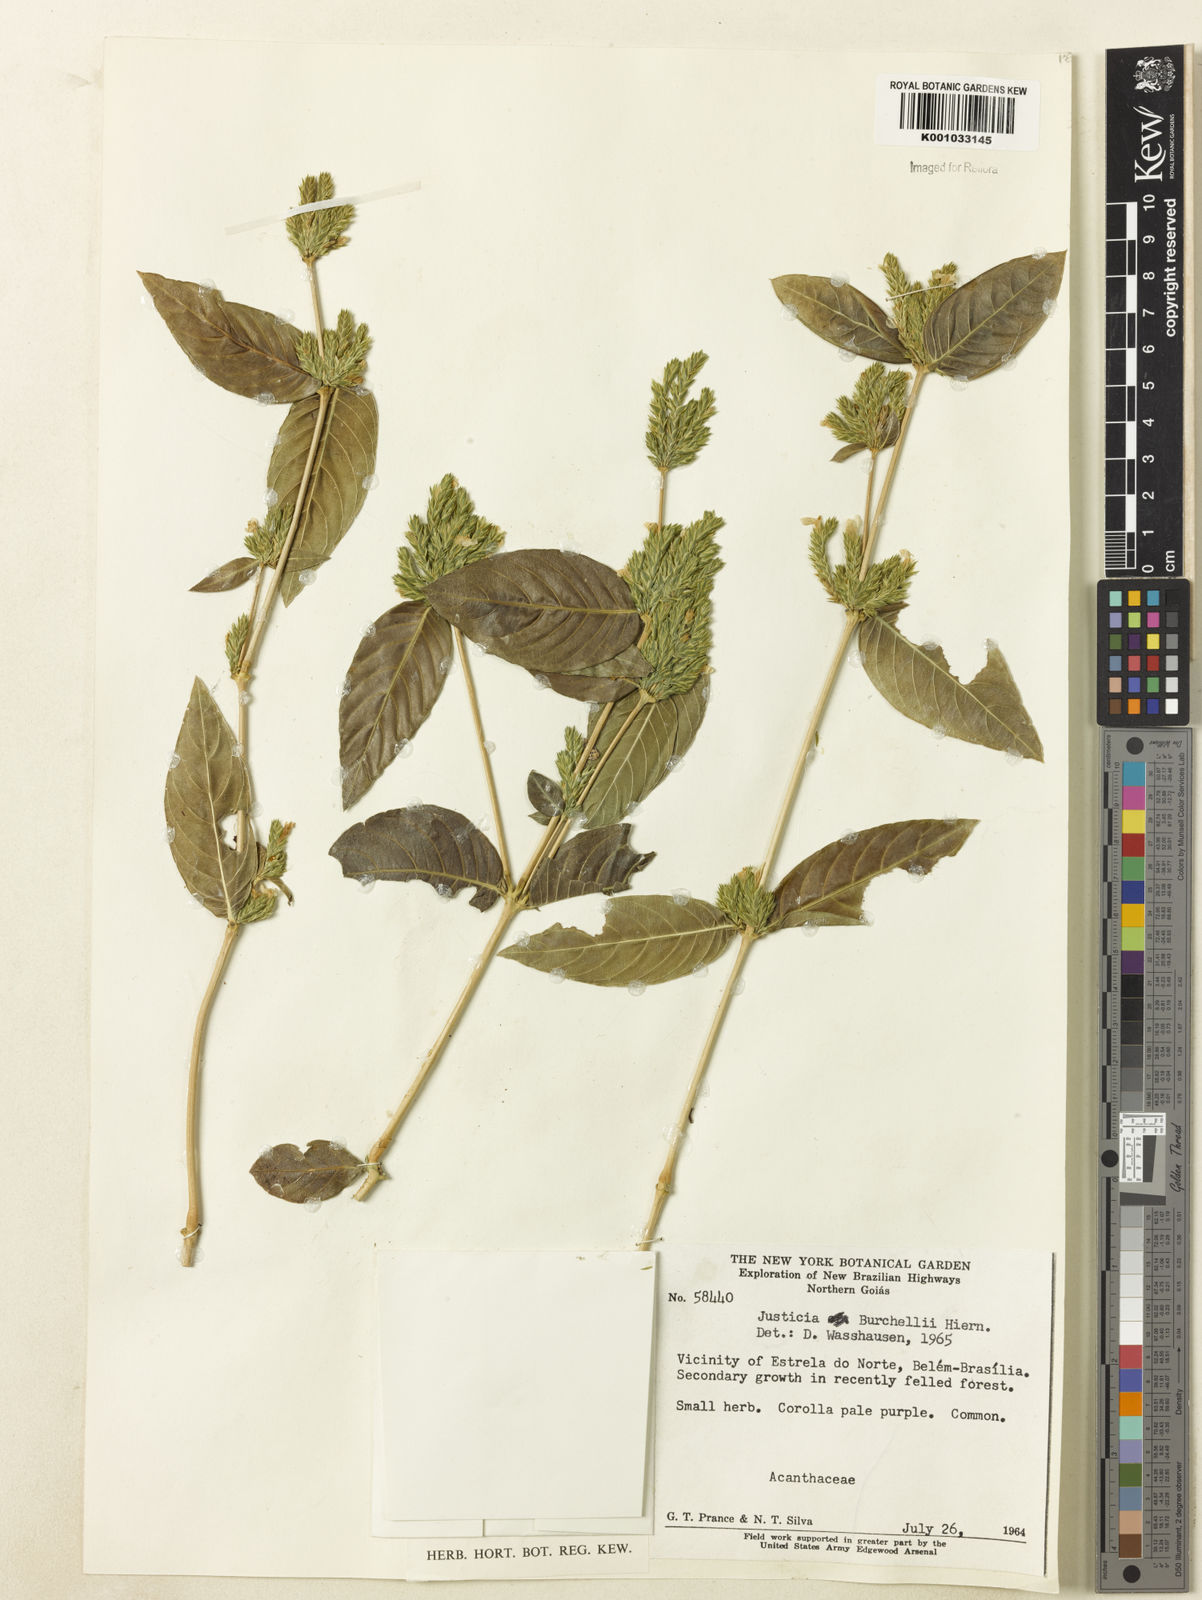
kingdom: Plantae
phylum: Tracheophyta
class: Magnoliopsida
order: Lamiales
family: Acanthaceae
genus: Justicia
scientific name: Justicia burchellii
